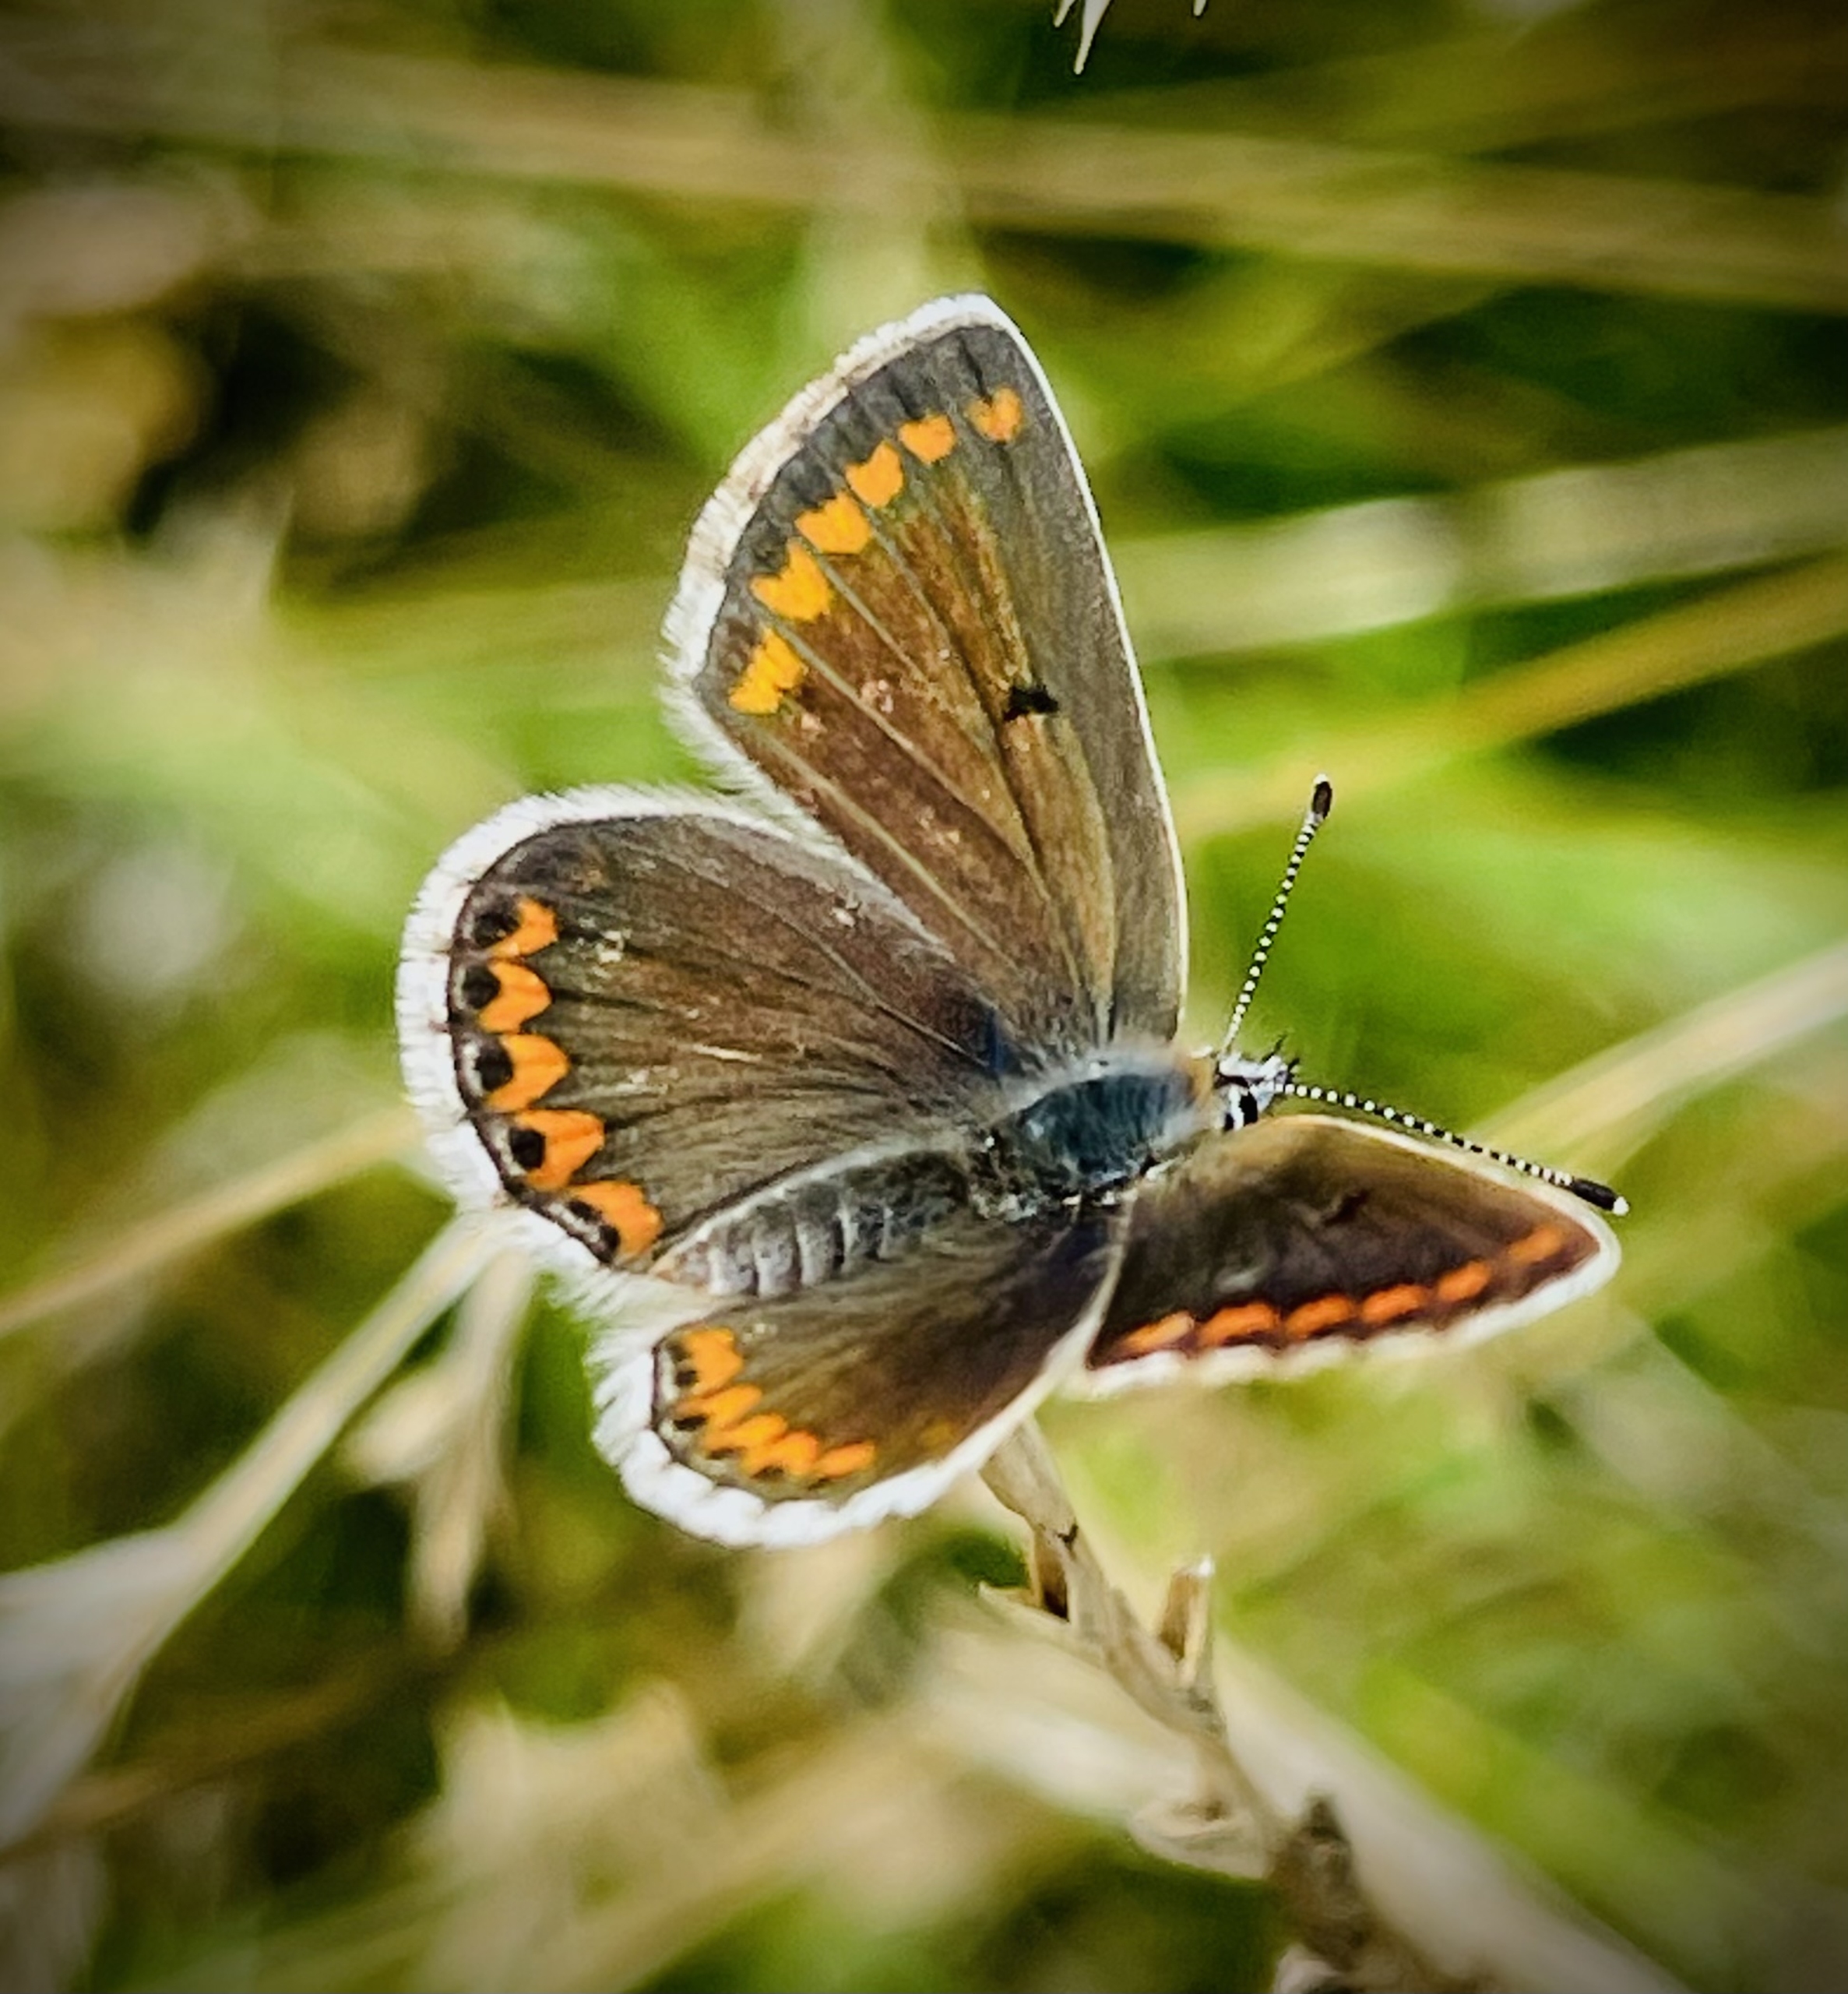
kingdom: Animalia
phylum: Arthropoda
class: Insecta
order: Lepidoptera
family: Lycaenidae
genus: Aricia
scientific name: Aricia agestis
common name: Rødplettet blåfugl
